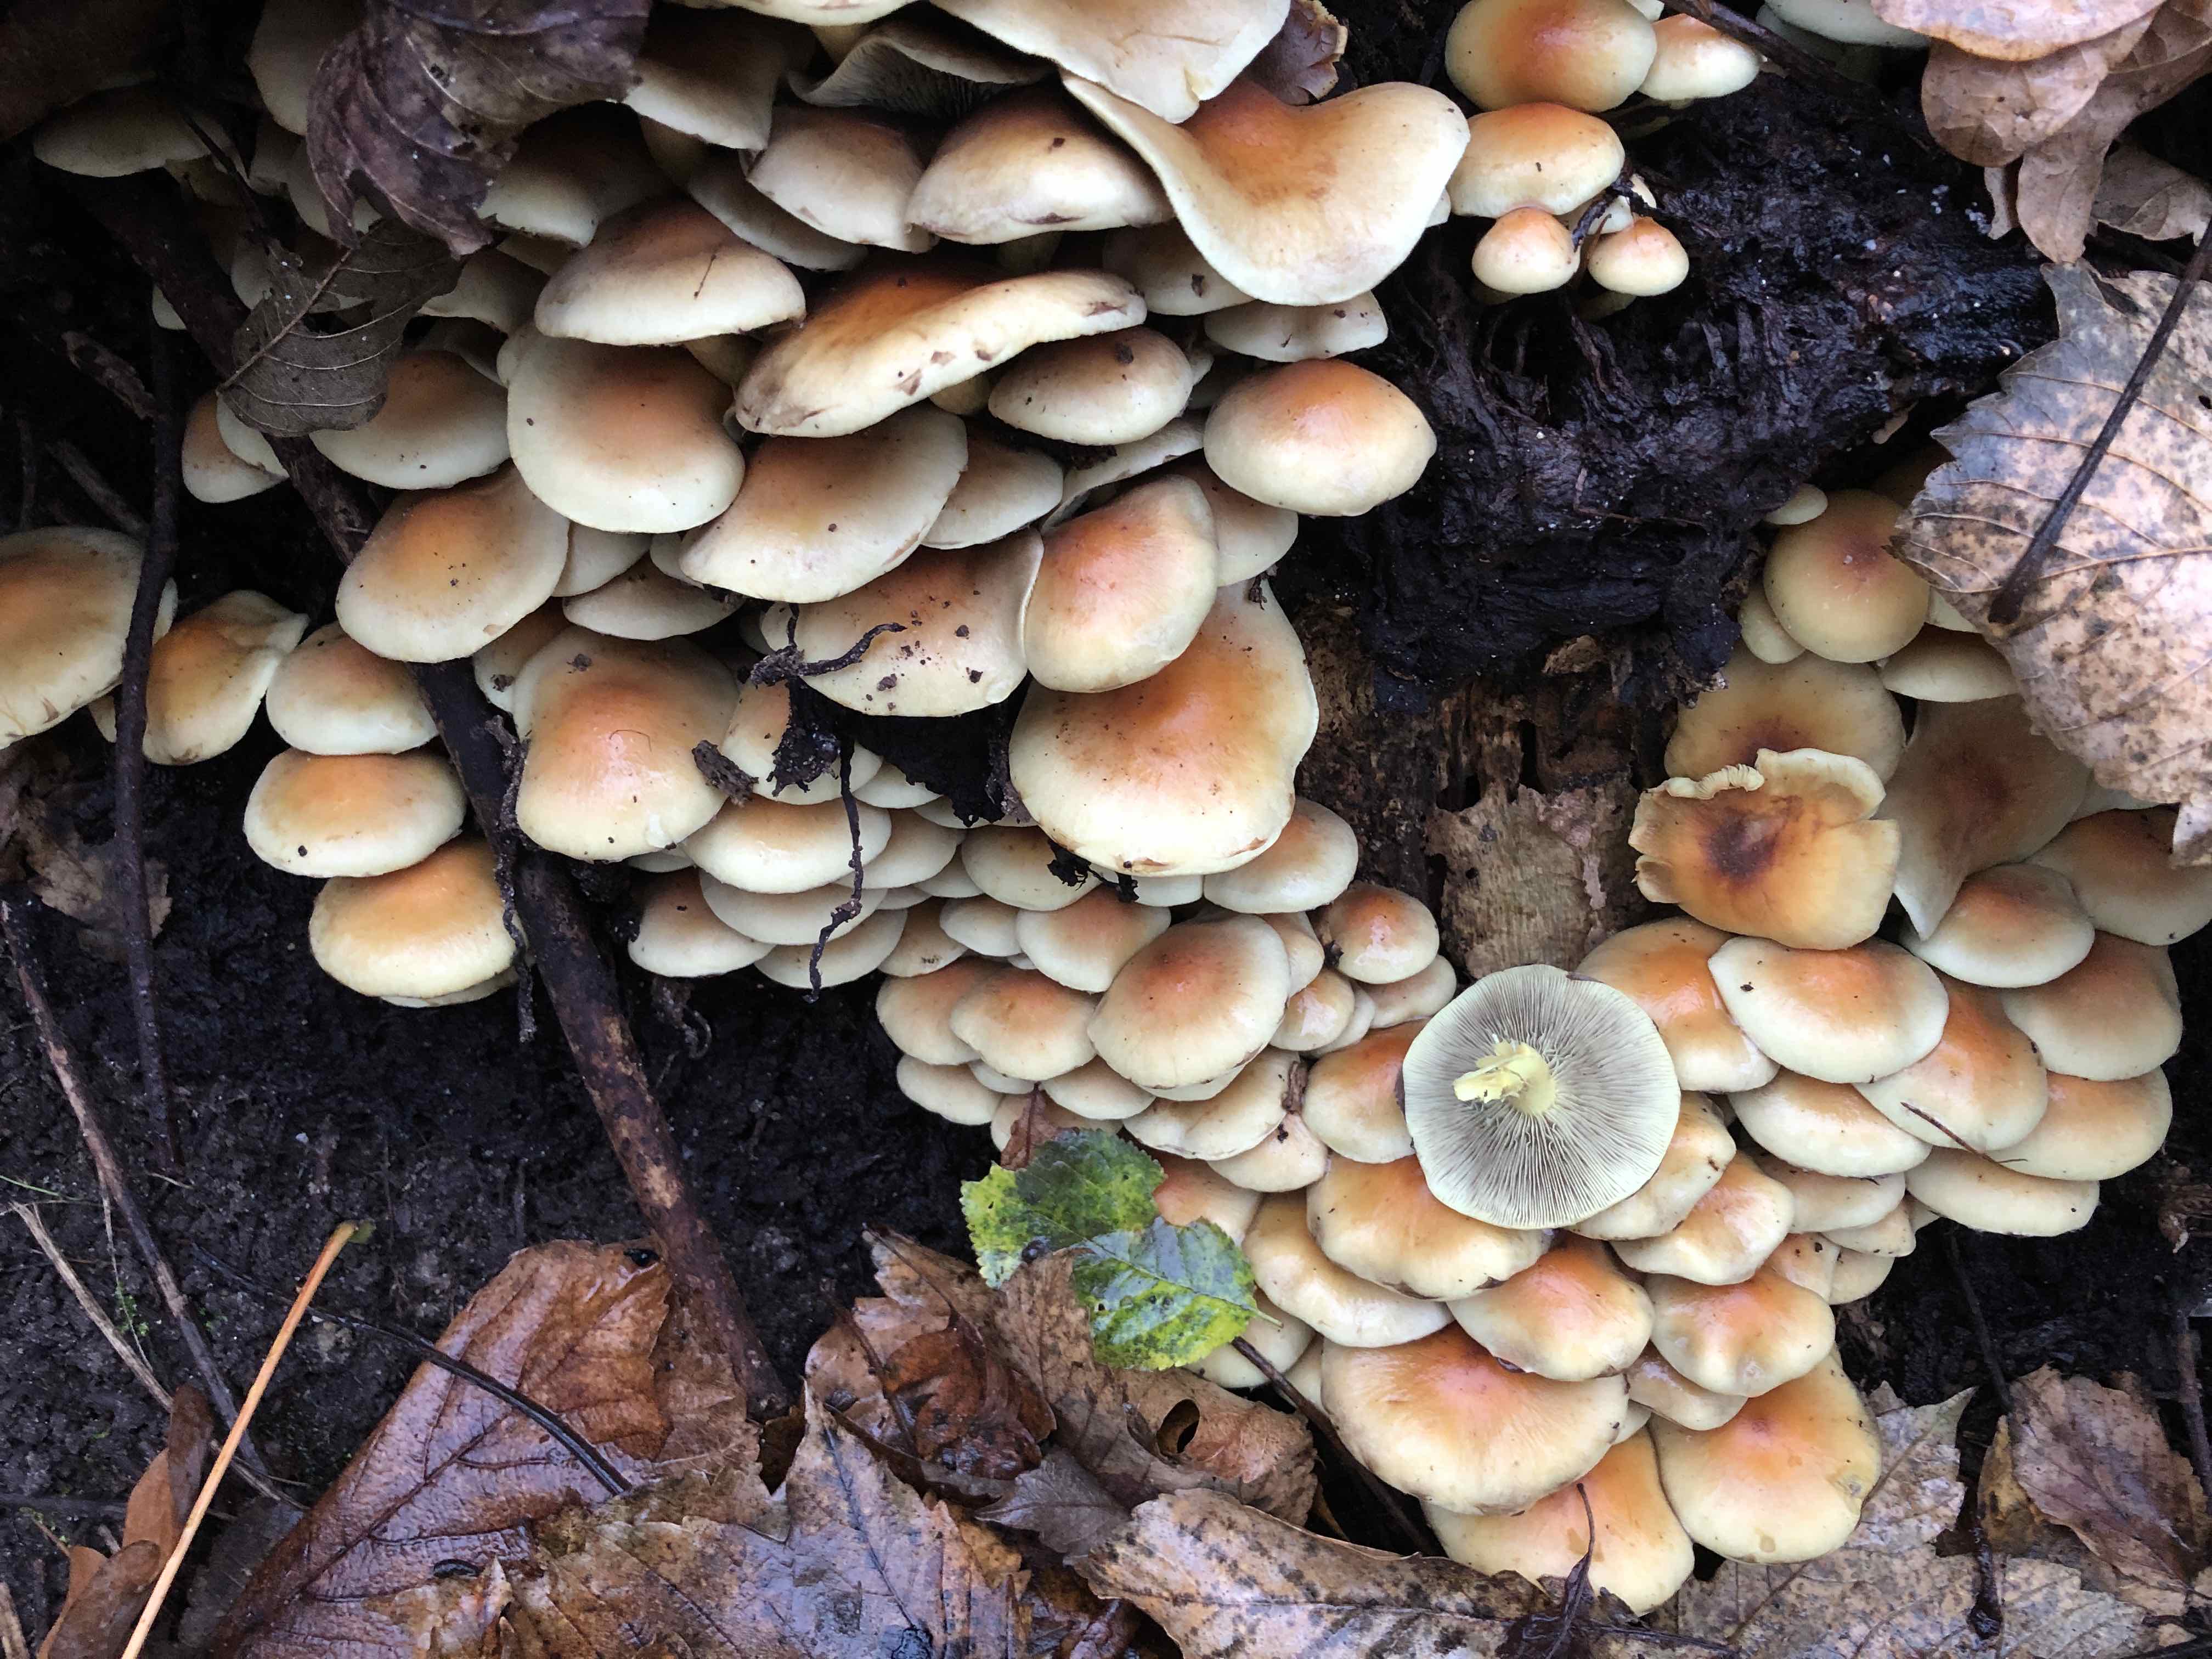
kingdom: Fungi
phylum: Basidiomycota
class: Agaricomycetes
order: Agaricales
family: Strophariaceae
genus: Hypholoma
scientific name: Hypholoma fasciculare
